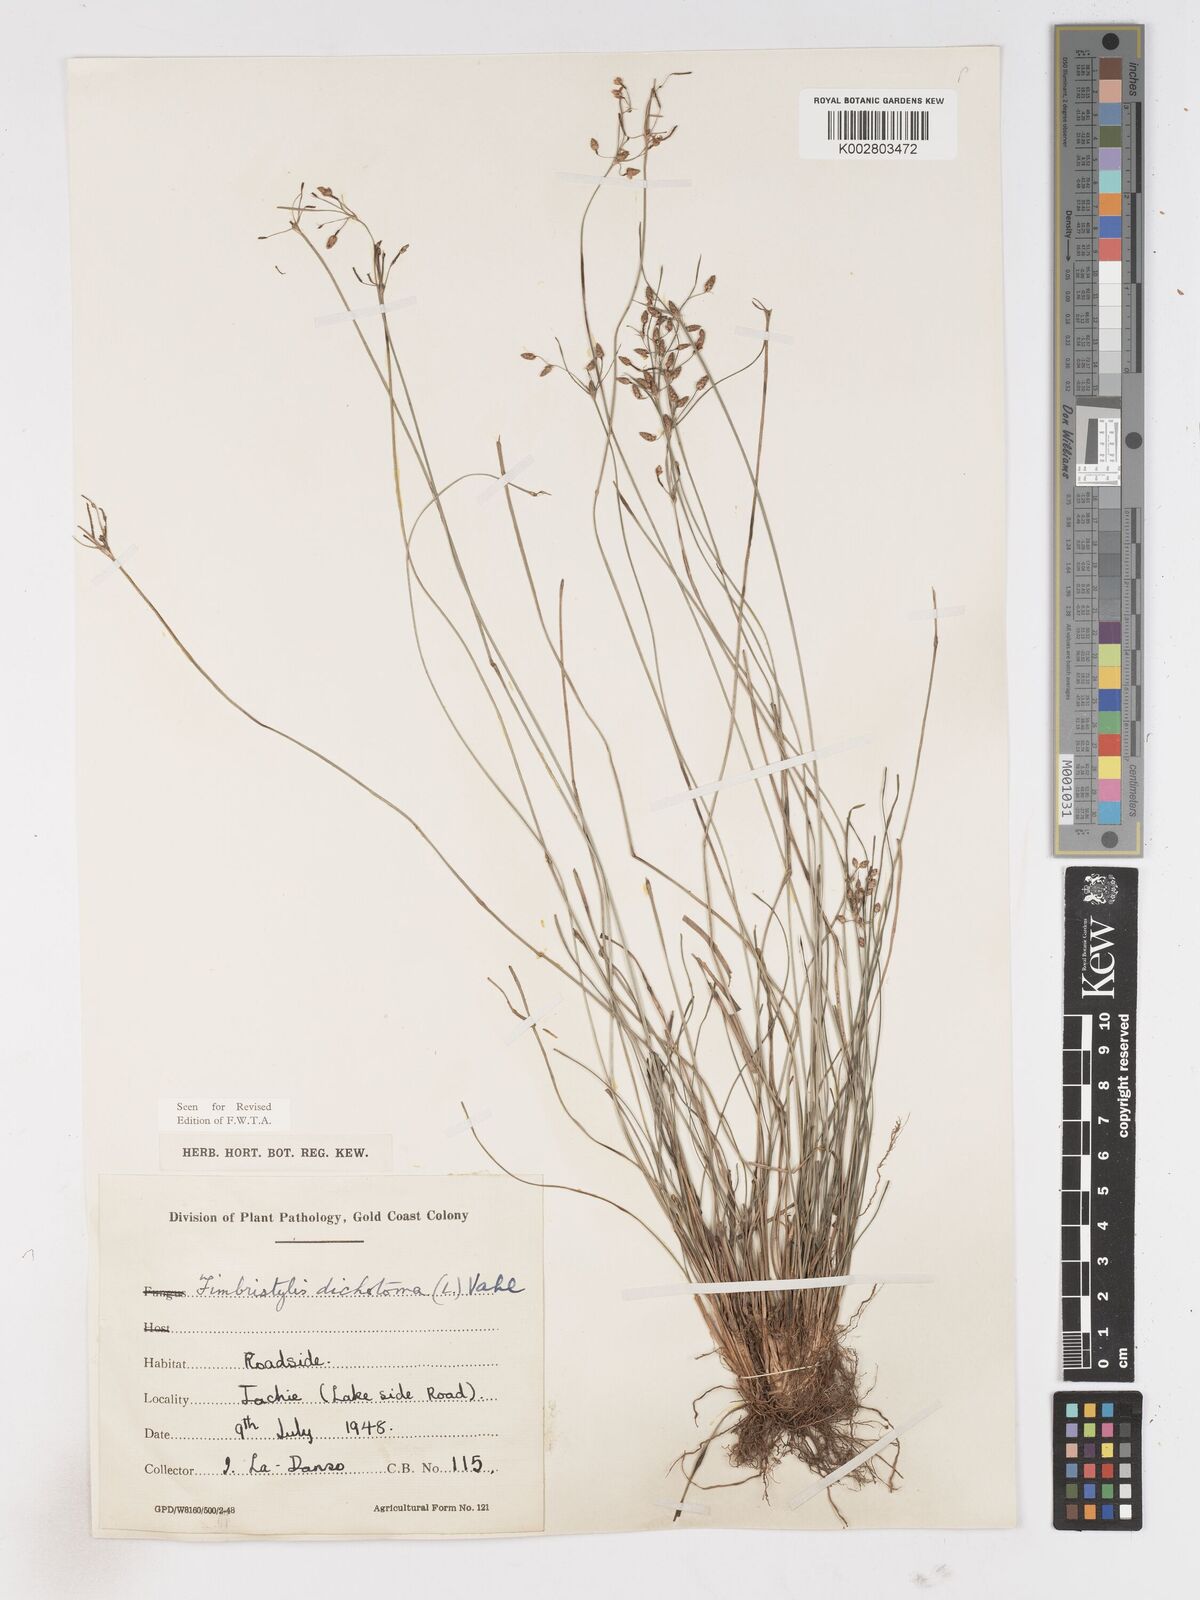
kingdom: Plantae
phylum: Tracheophyta
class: Liliopsida
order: Poales
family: Cyperaceae
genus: Fimbristylis
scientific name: Fimbristylis dichotoma
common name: Forked fimbry
